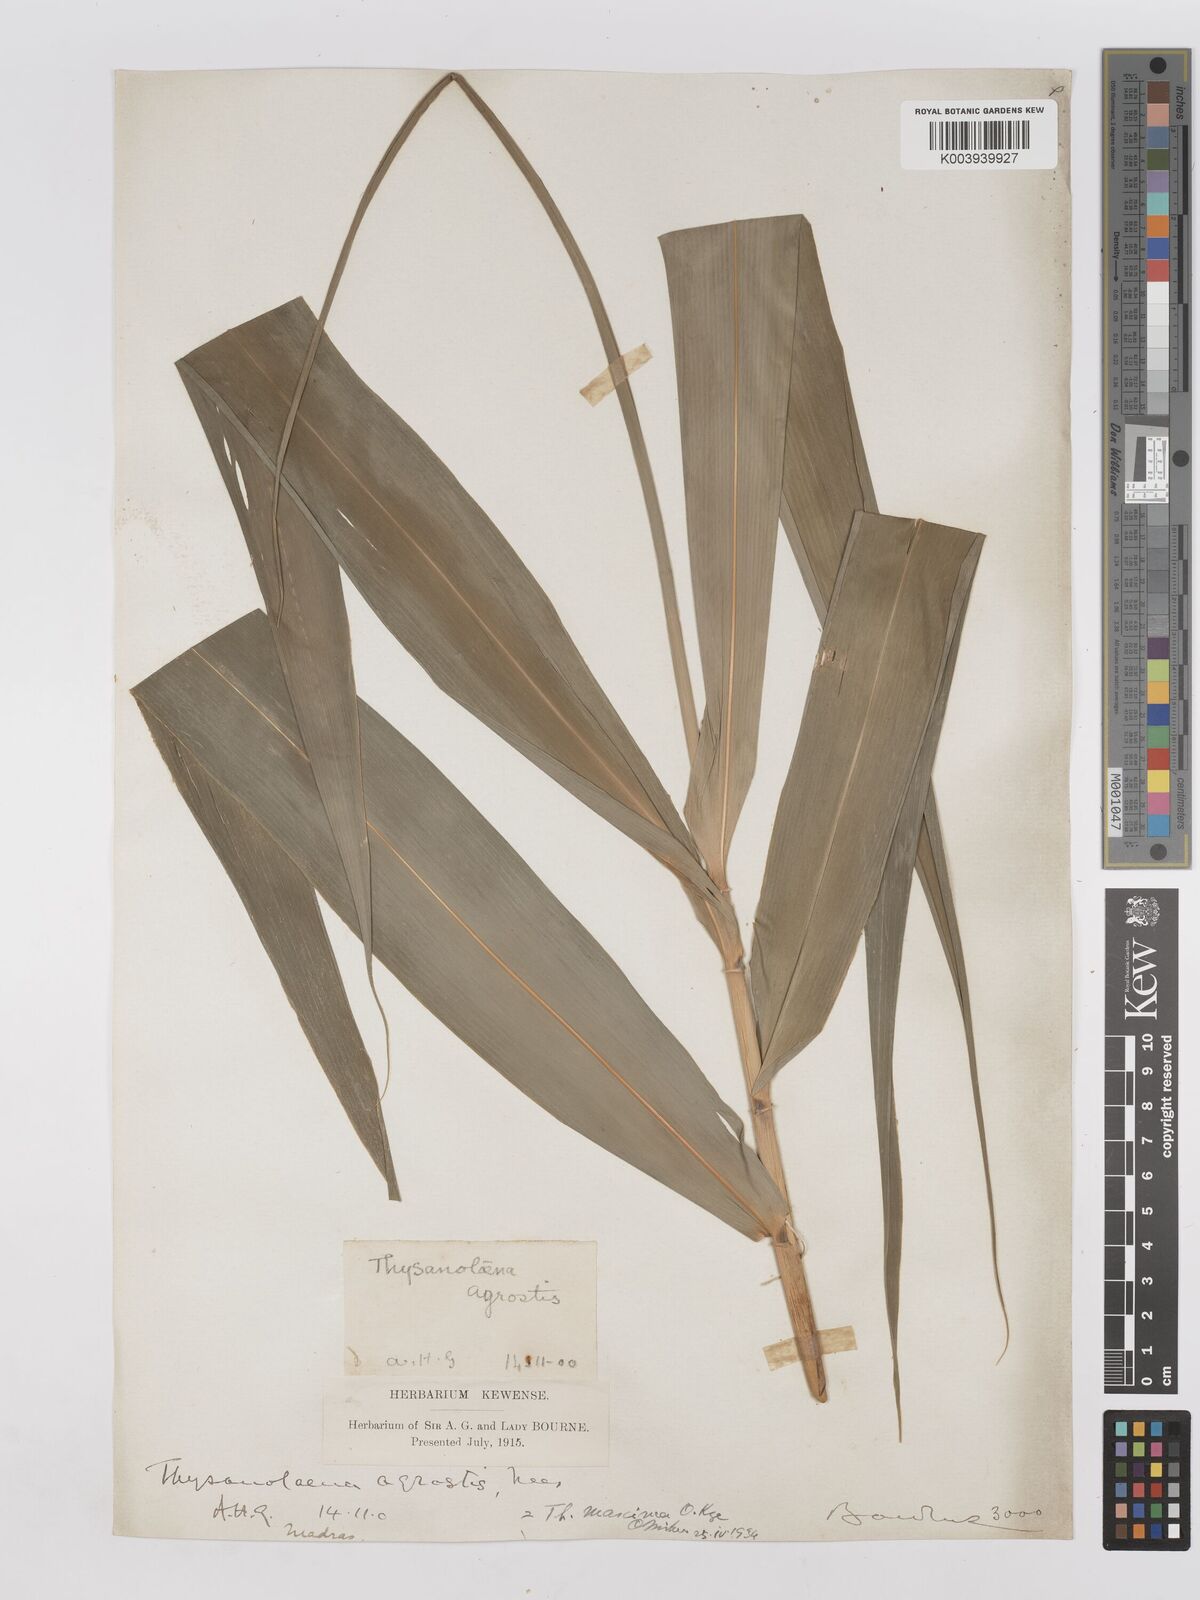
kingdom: Plantae
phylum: Tracheophyta
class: Liliopsida
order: Poales
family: Poaceae
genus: Thysanolaena
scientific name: Thysanolaena latifolia
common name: Tiger grass
